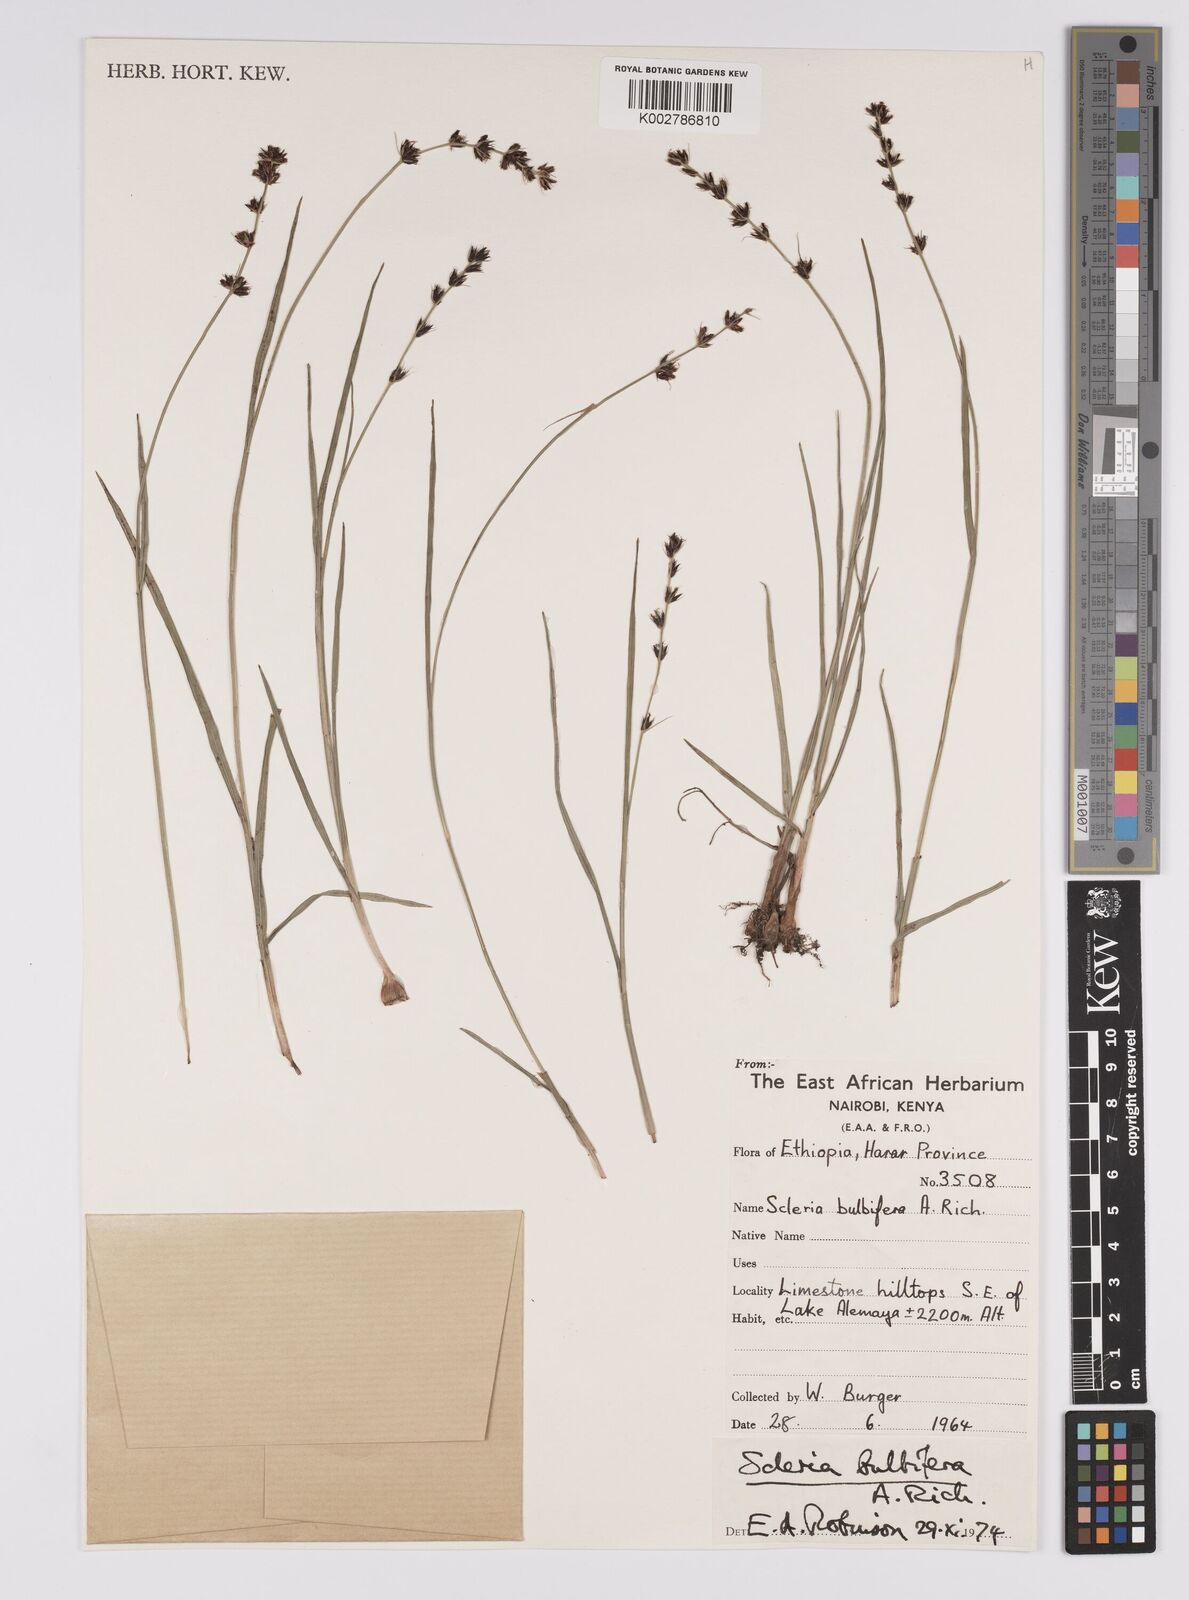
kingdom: Plantae
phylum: Tracheophyta
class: Liliopsida
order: Poales
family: Cyperaceae
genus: Scleria
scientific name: Scleria bulbifera
